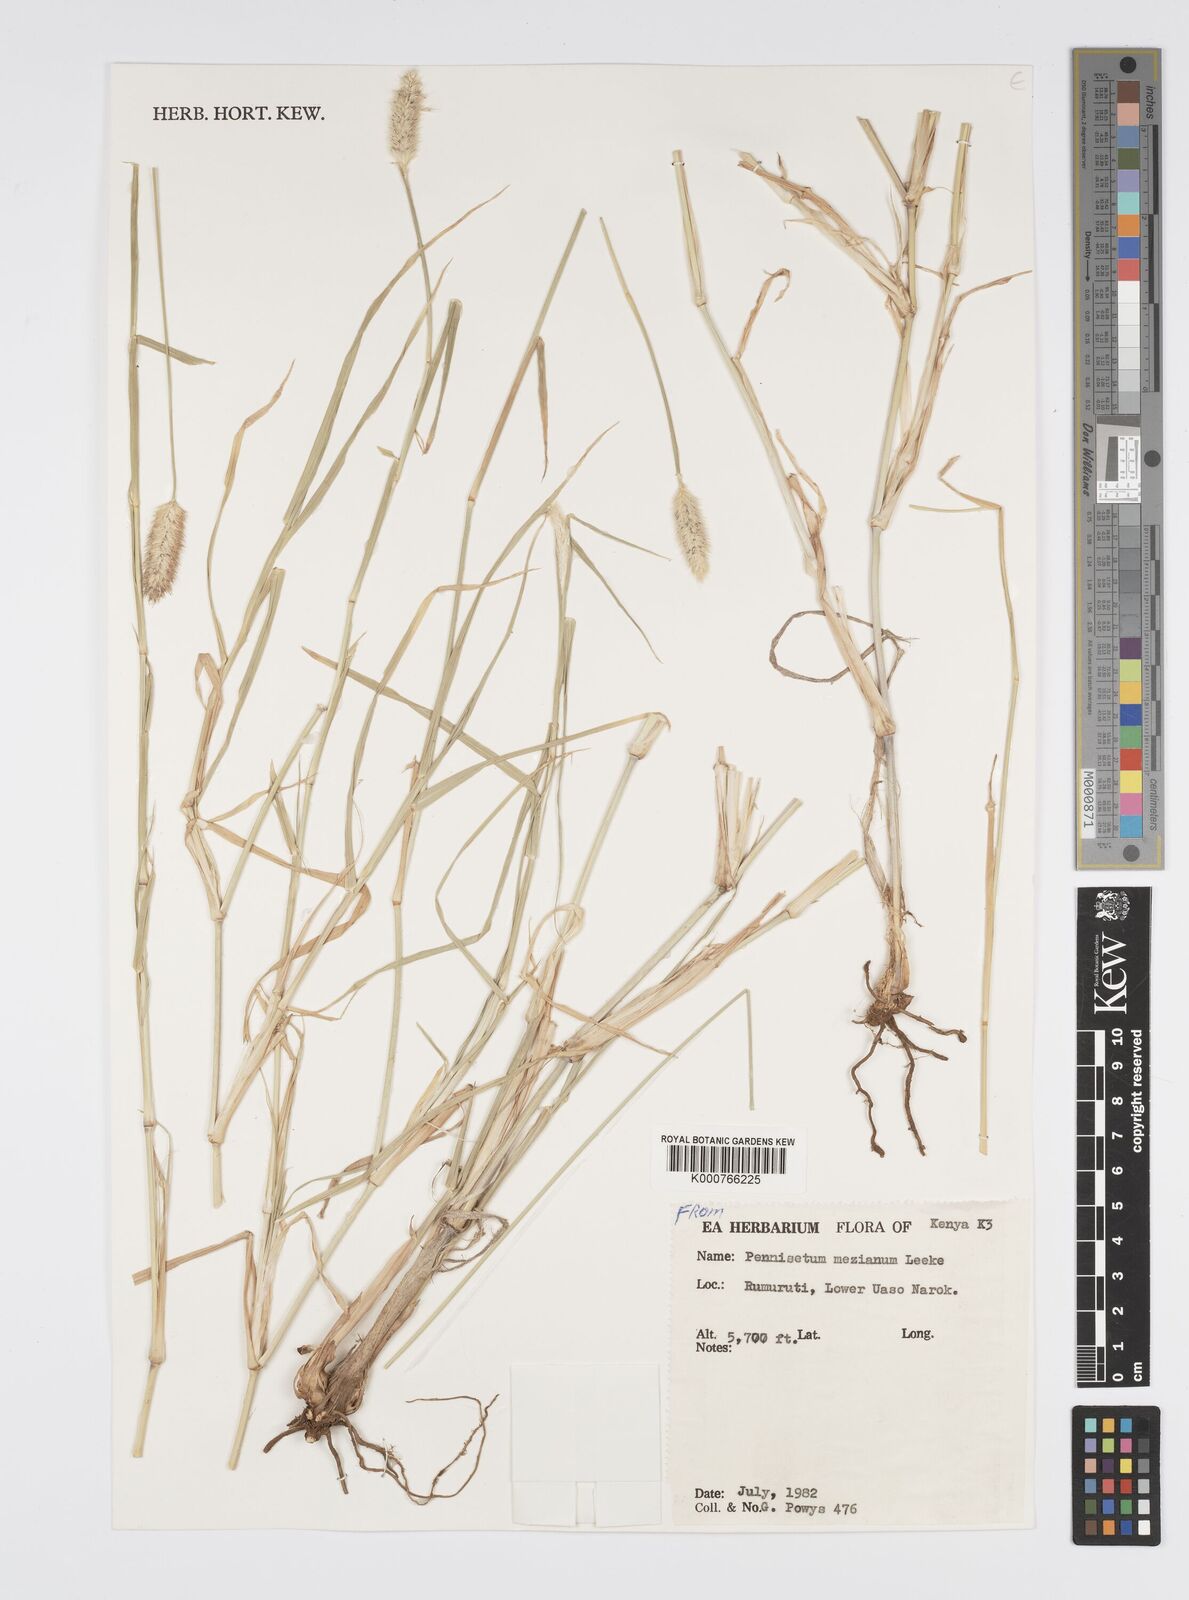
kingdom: Plantae
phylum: Tracheophyta
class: Liliopsida
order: Poales
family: Poaceae
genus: Cenchrus
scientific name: Cenchrus mezianus
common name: Bamboo grass
